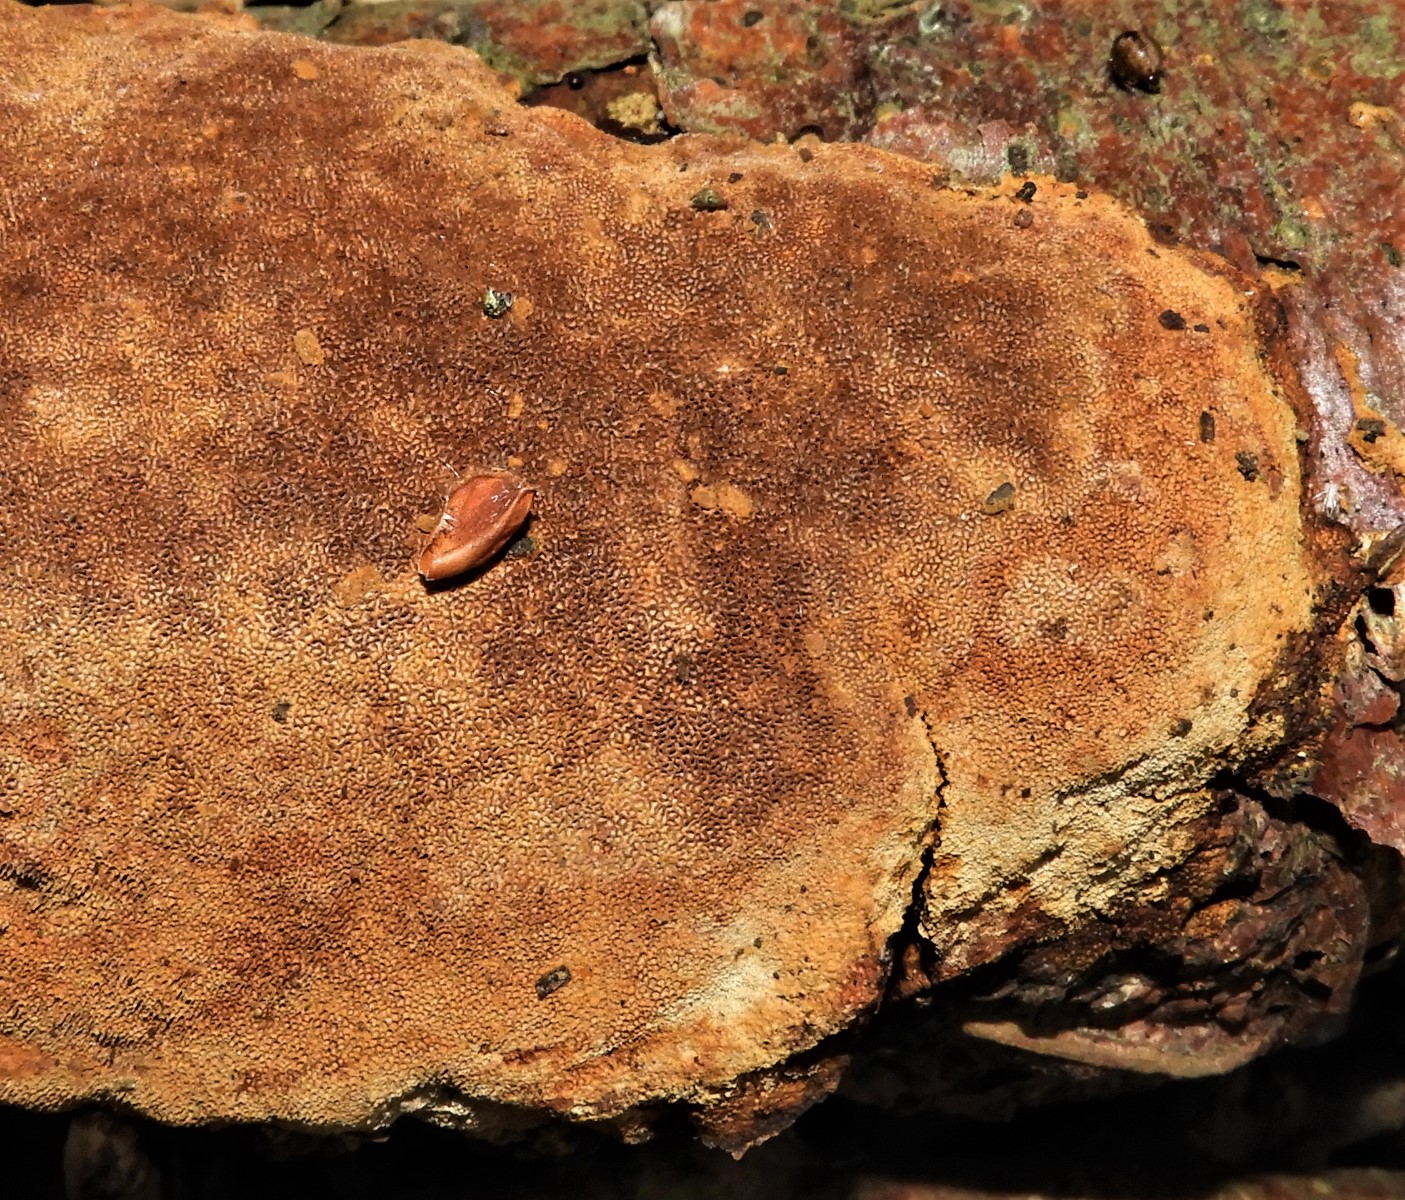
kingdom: Fungi
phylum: Basidiomycota
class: Agaricomycetes
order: Hymenochaetales
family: Hymenochaetaceae
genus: Fuscoporia
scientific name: Fuscoporia ferrea
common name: skorpe-ildporesvamp
